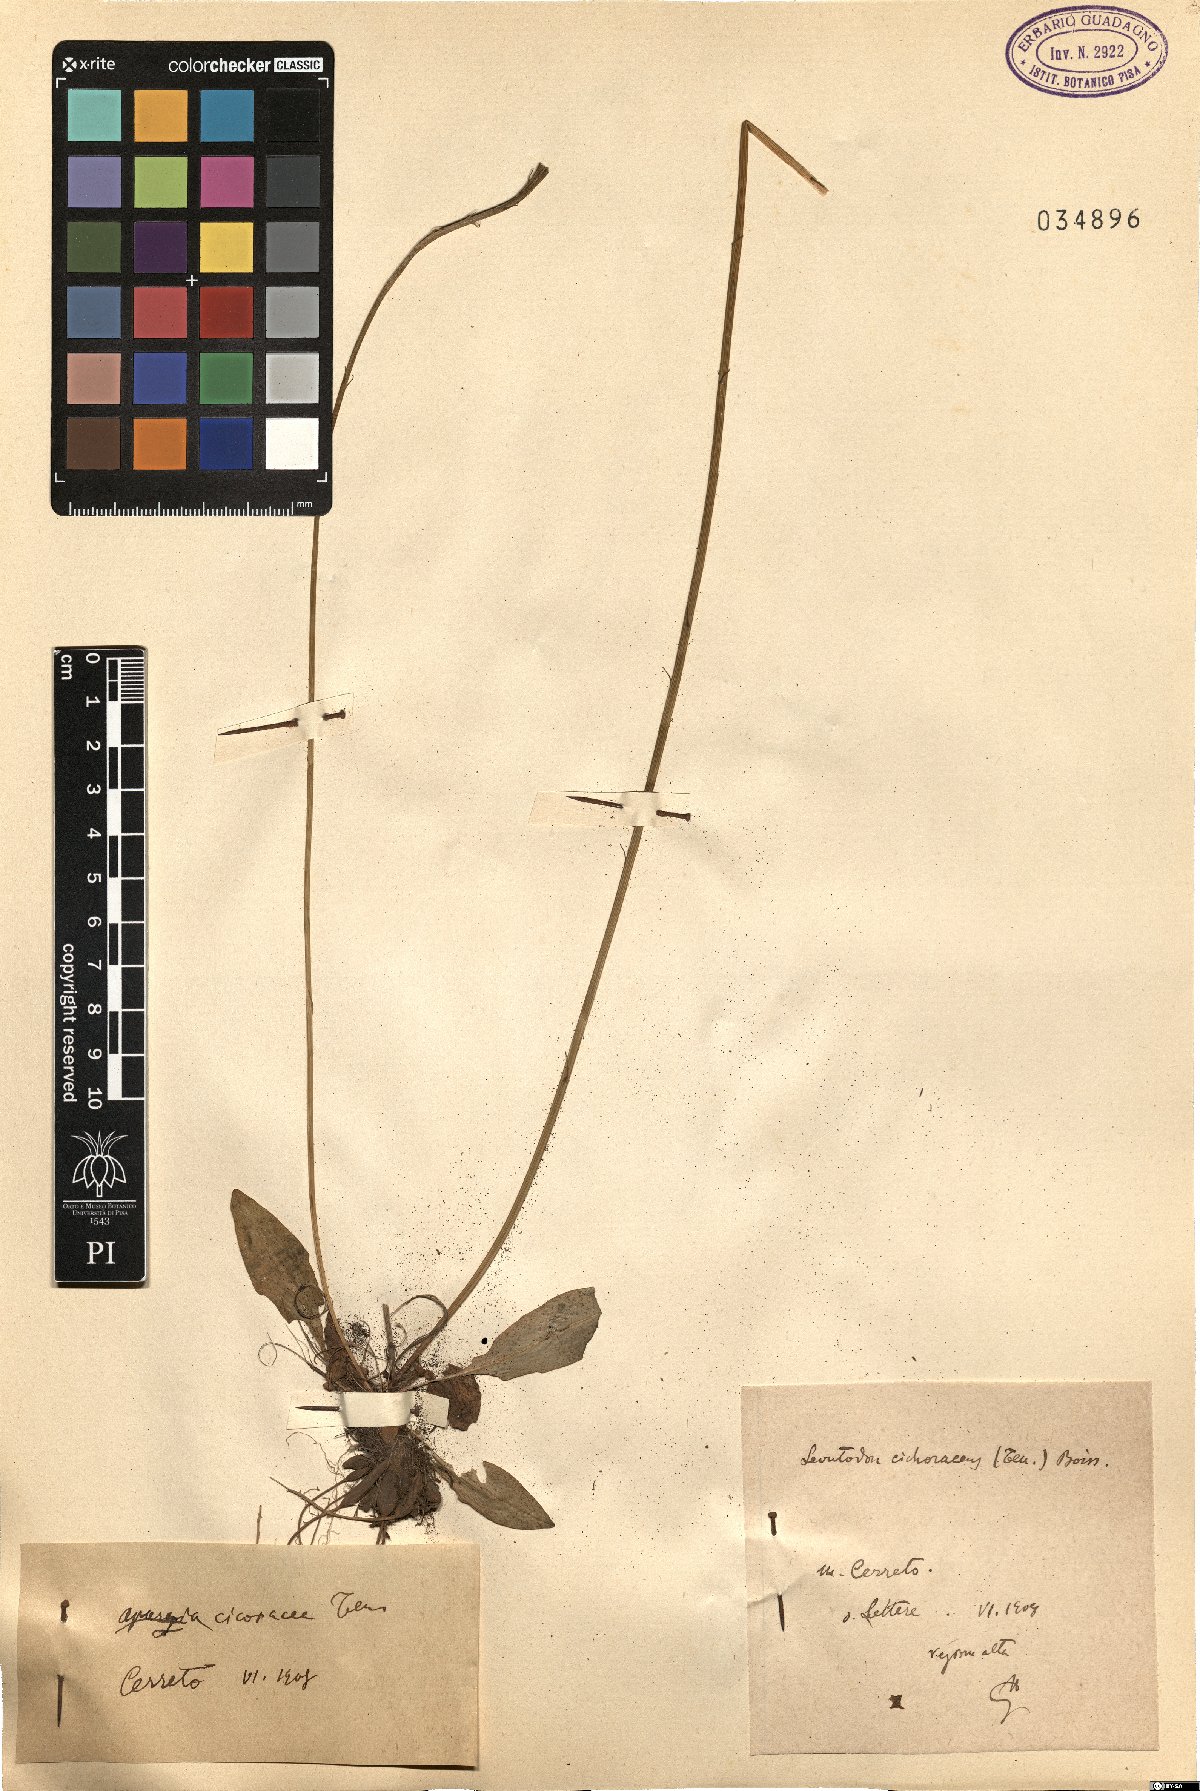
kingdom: Plantae
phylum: Tracheophyta
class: Magnoliopsida
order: Asterales
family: Asteraceae
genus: Scorzoneroides
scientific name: Scorzoneroides cichoriacea
